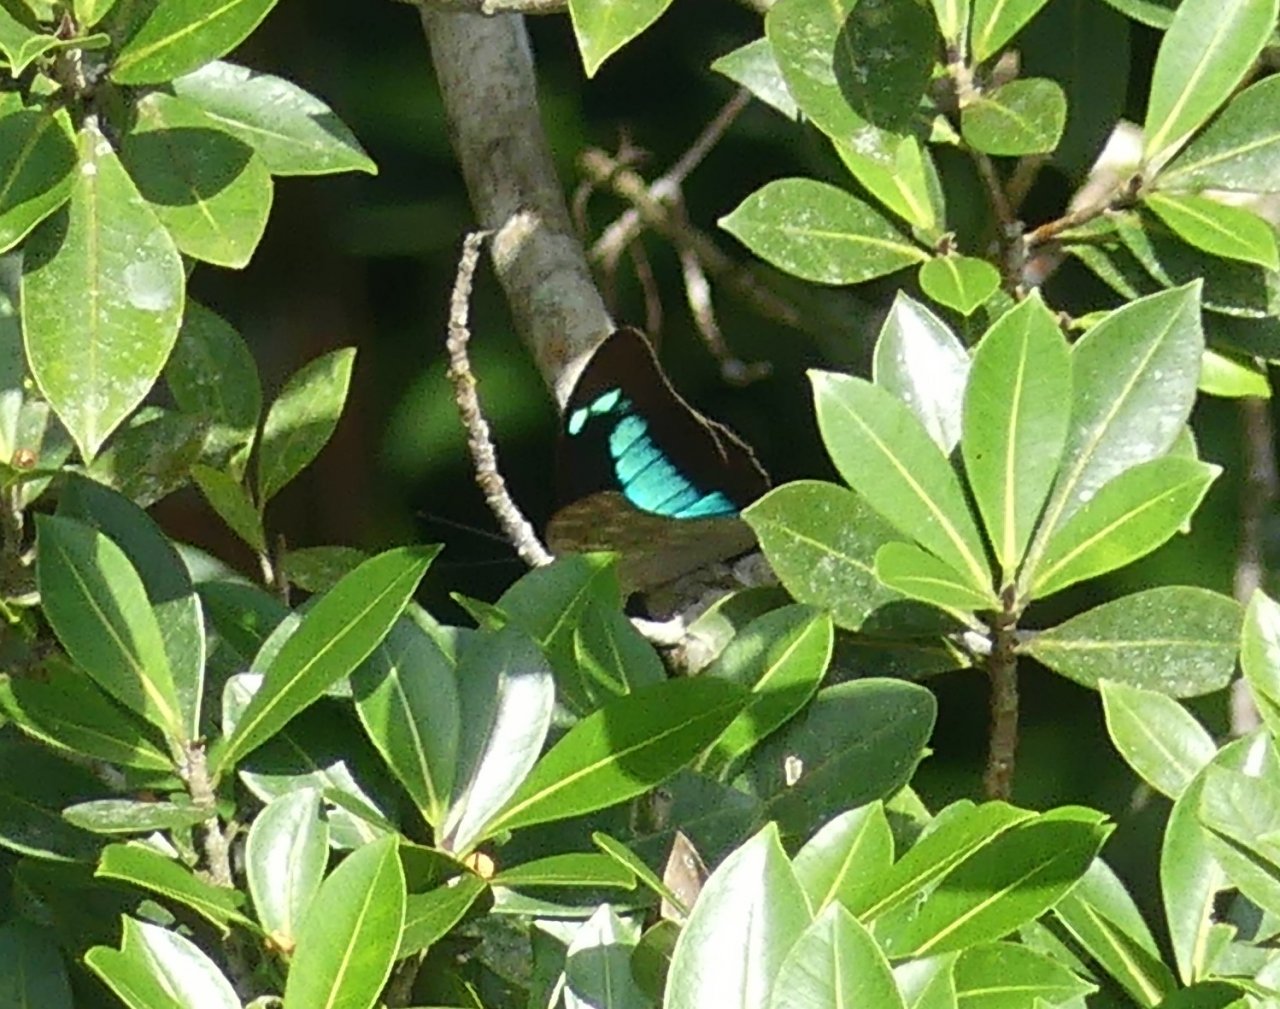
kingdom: Animalia
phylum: Arthropoda
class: Insecta
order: Lepidoptera
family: Nymphalidae
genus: Prepona
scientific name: Prepona demophoon
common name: Two-spotted Prepona
